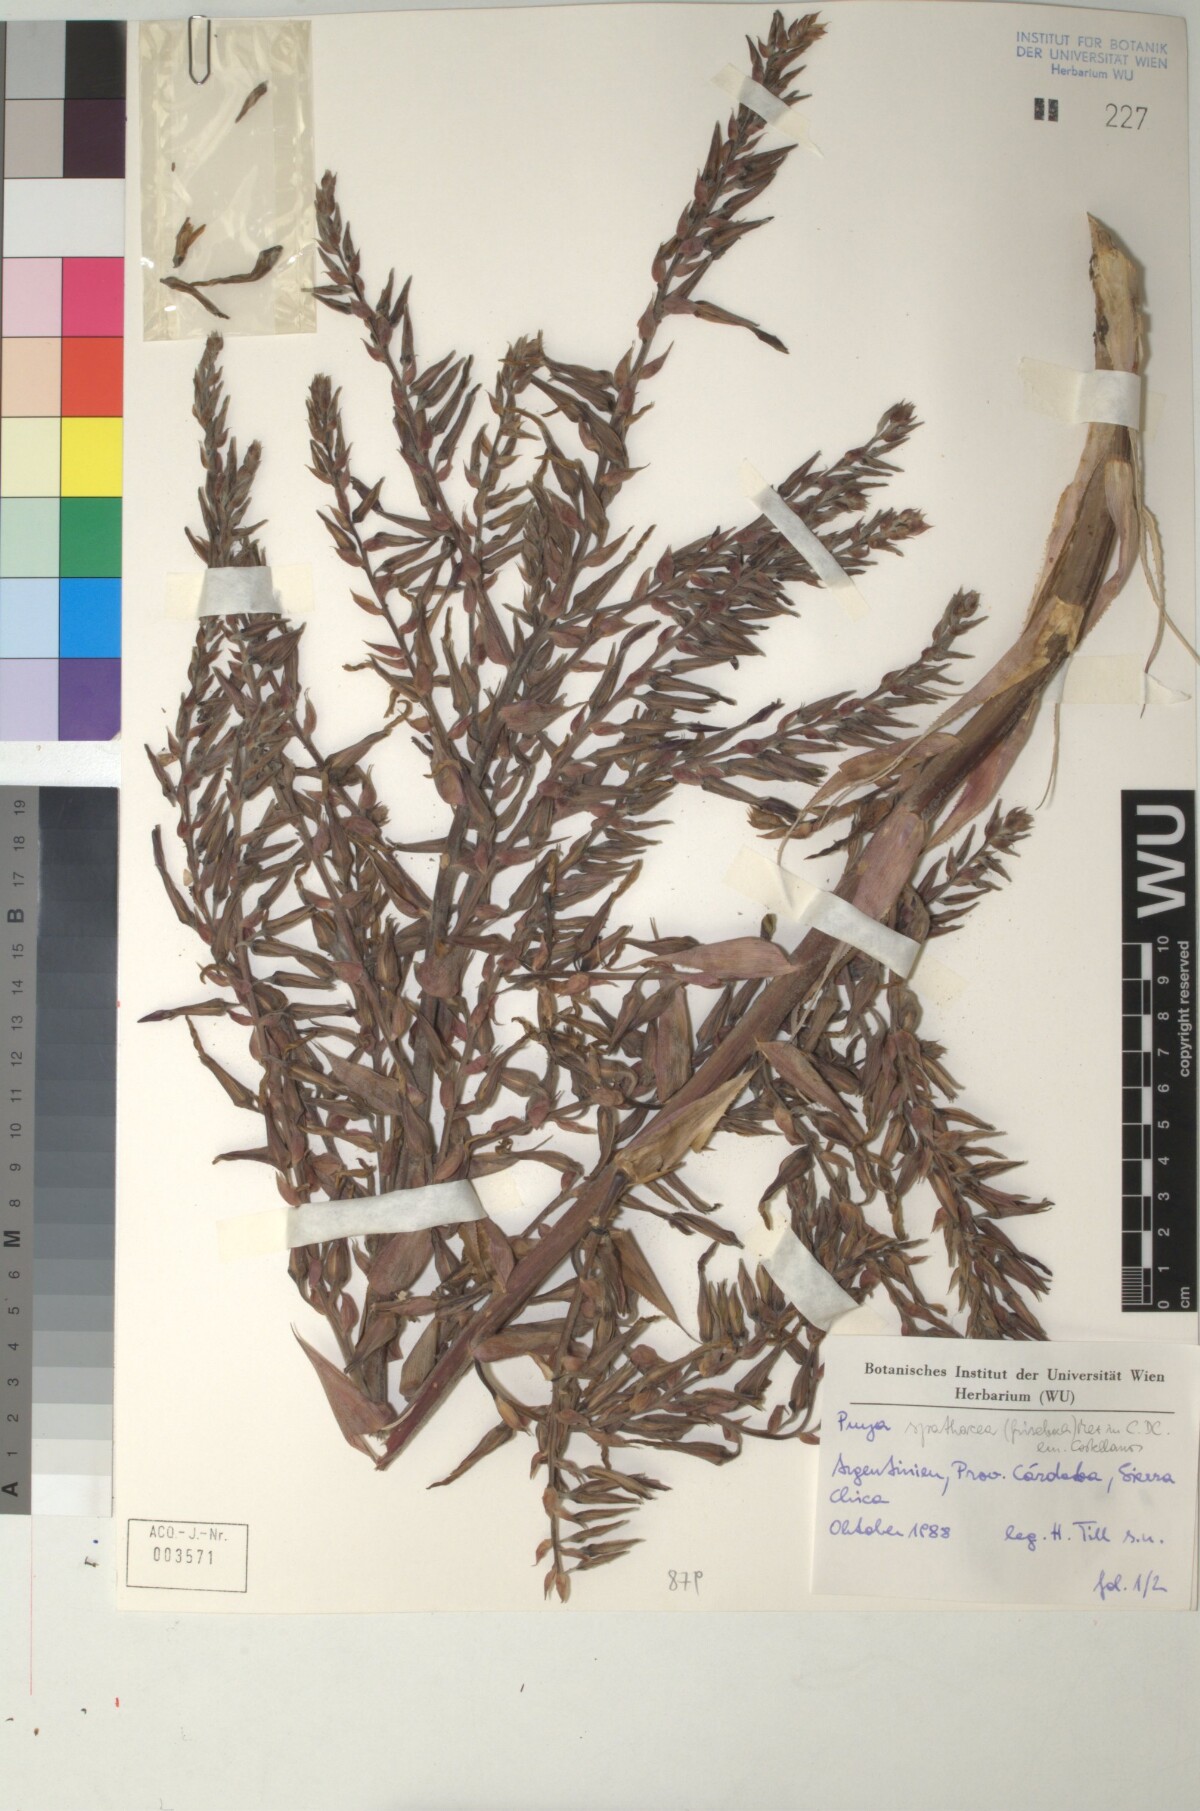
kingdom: Plantae
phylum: Tracheophyta
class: Liliopsida
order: Poales
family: Bromeliaceae
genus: Puya
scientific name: Puya spathacea
